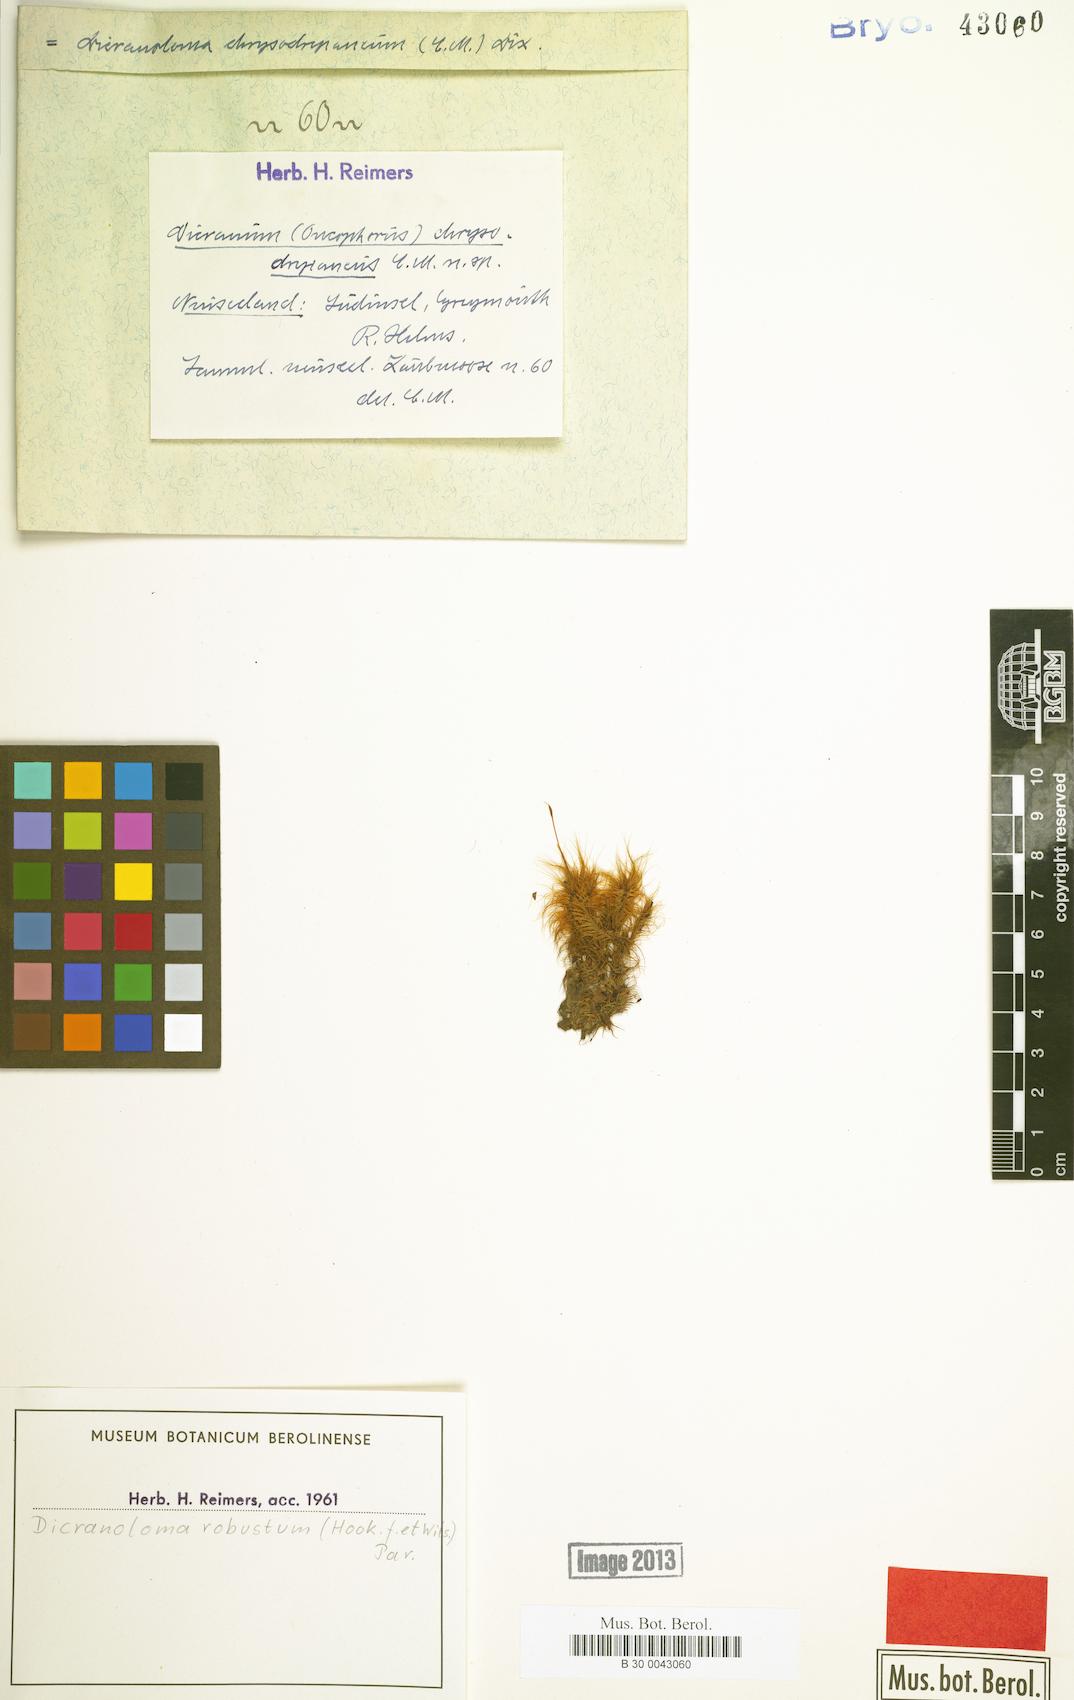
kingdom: Plantae
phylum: Bryophyta
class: Bryopsida
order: Dicranales
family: Dicranaceae
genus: Dicranoloma
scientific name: Dicranoloma robustum
